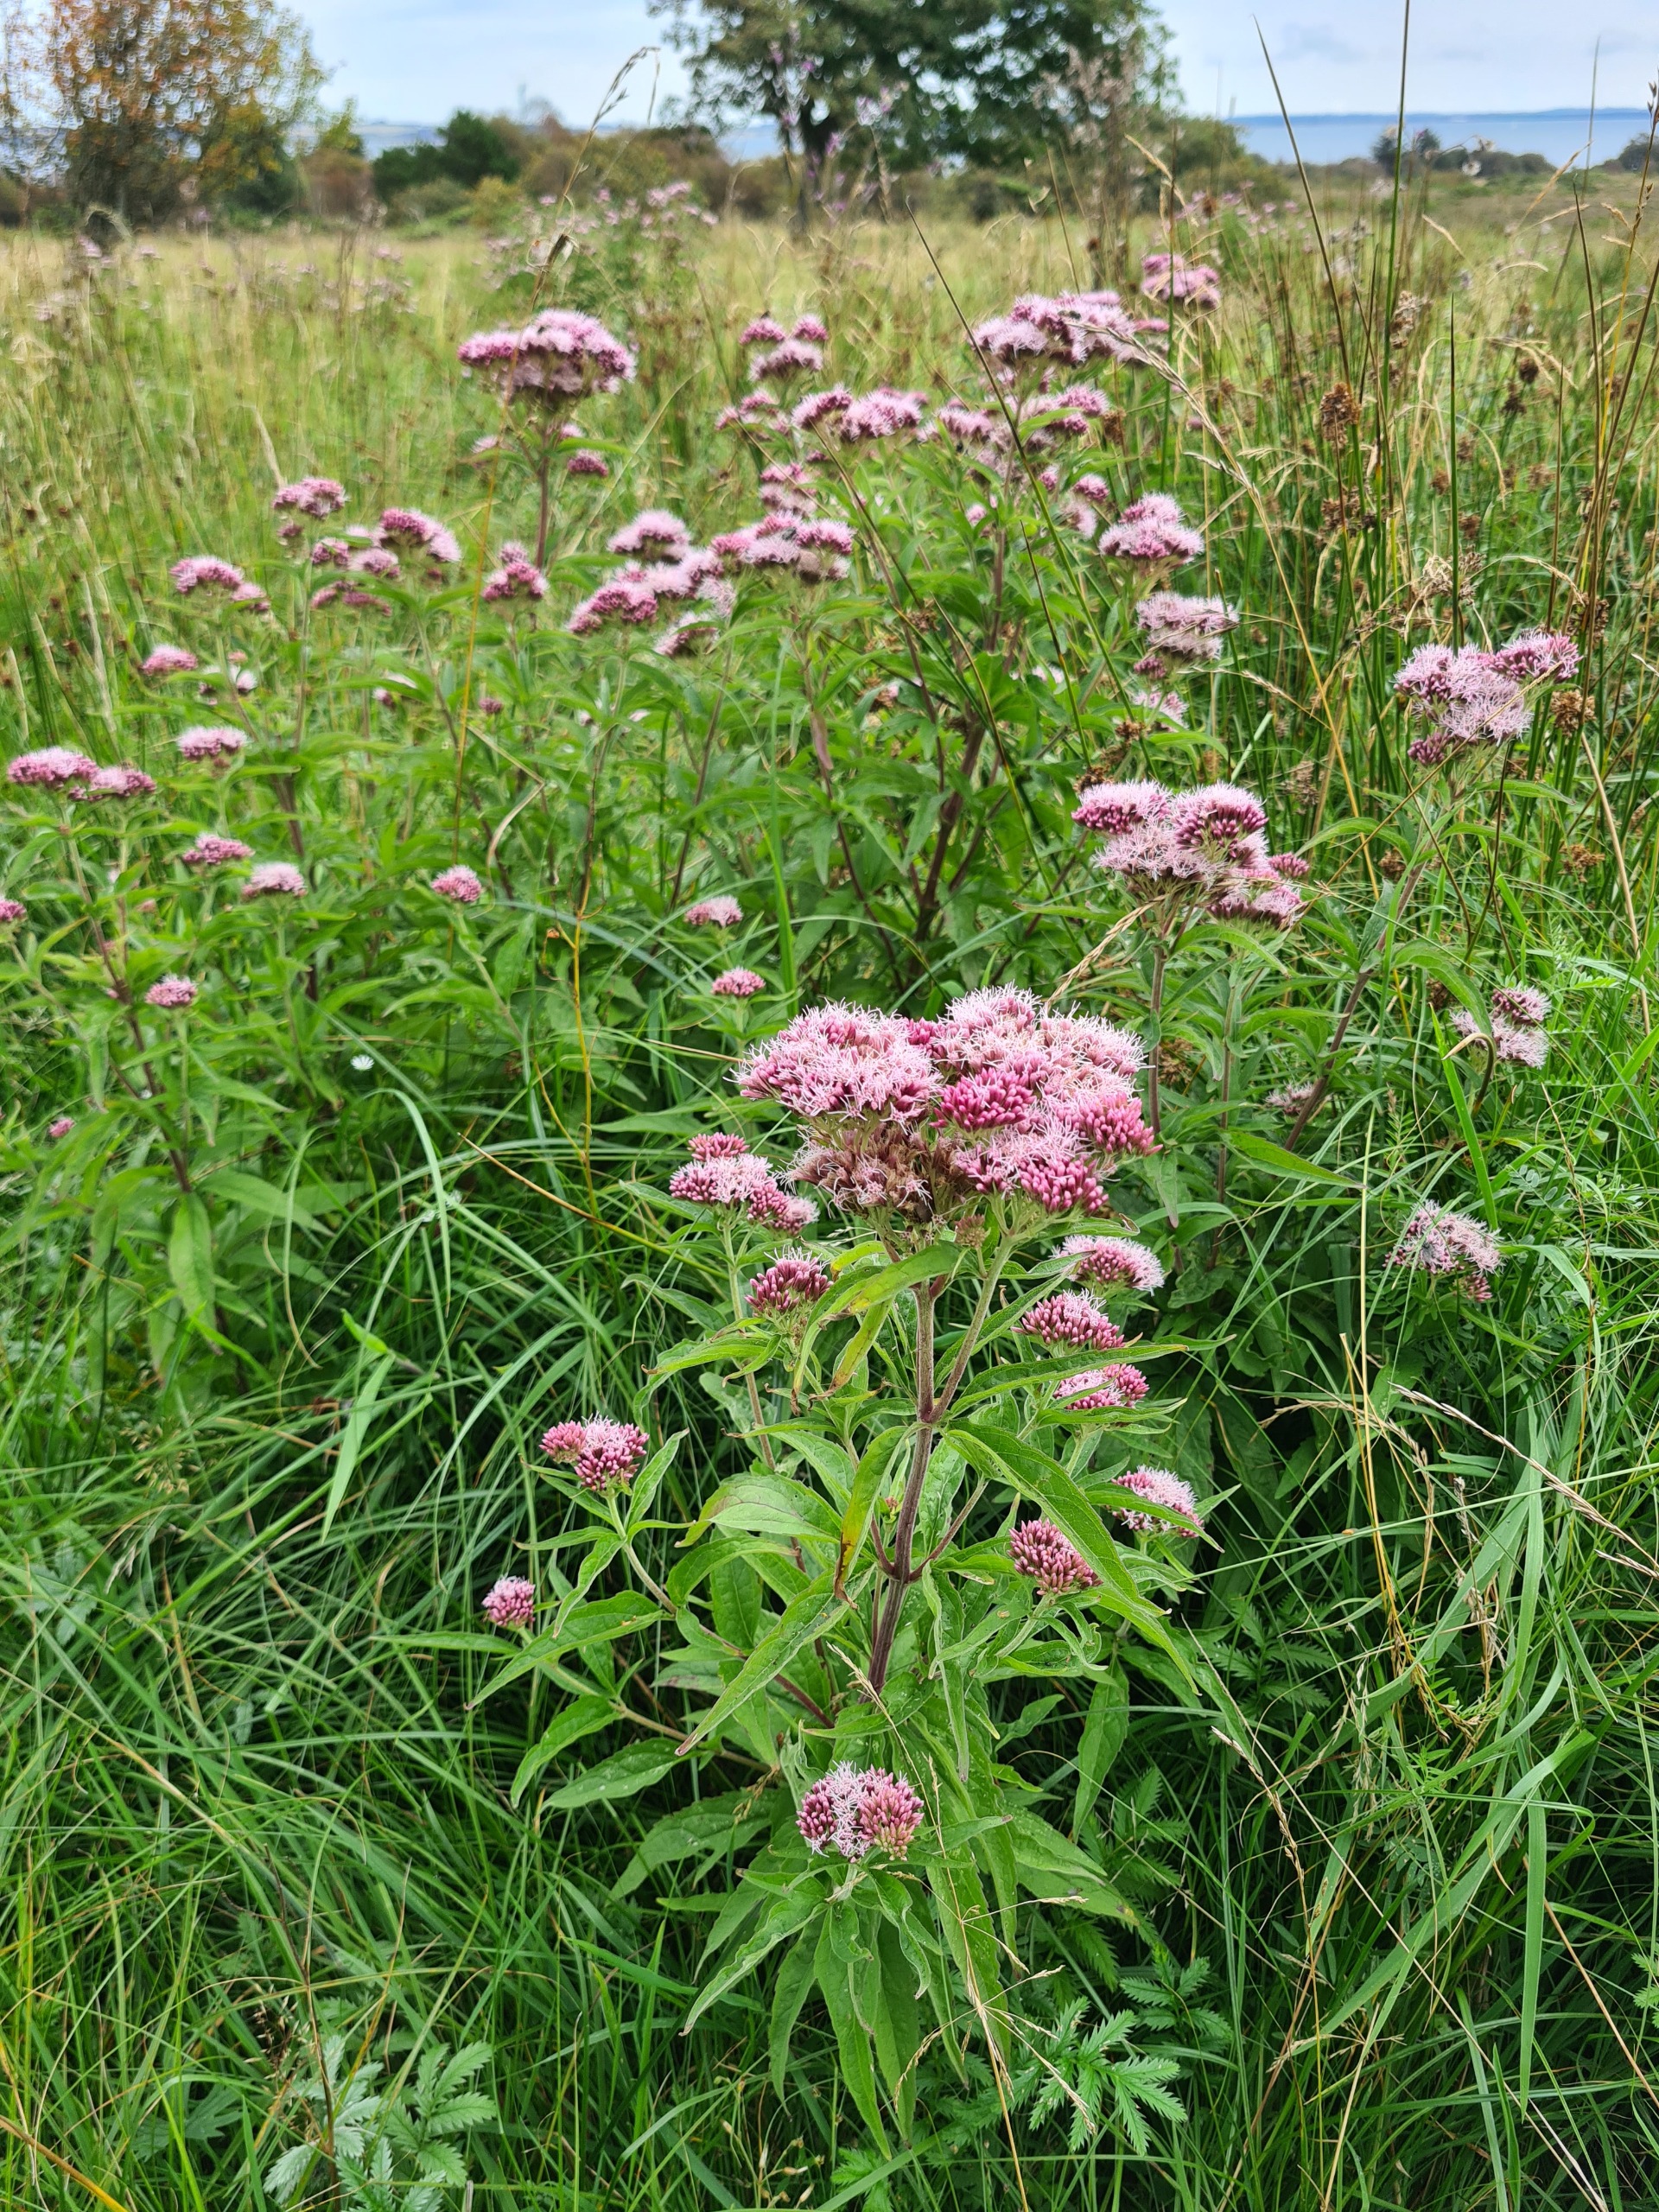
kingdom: Plantae
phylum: Tracheophyta
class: Magnoliopsida
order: Asterales
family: Asteraceae
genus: Eupatorium
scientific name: Eupatorium cannabinum
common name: Hjortetrøst
